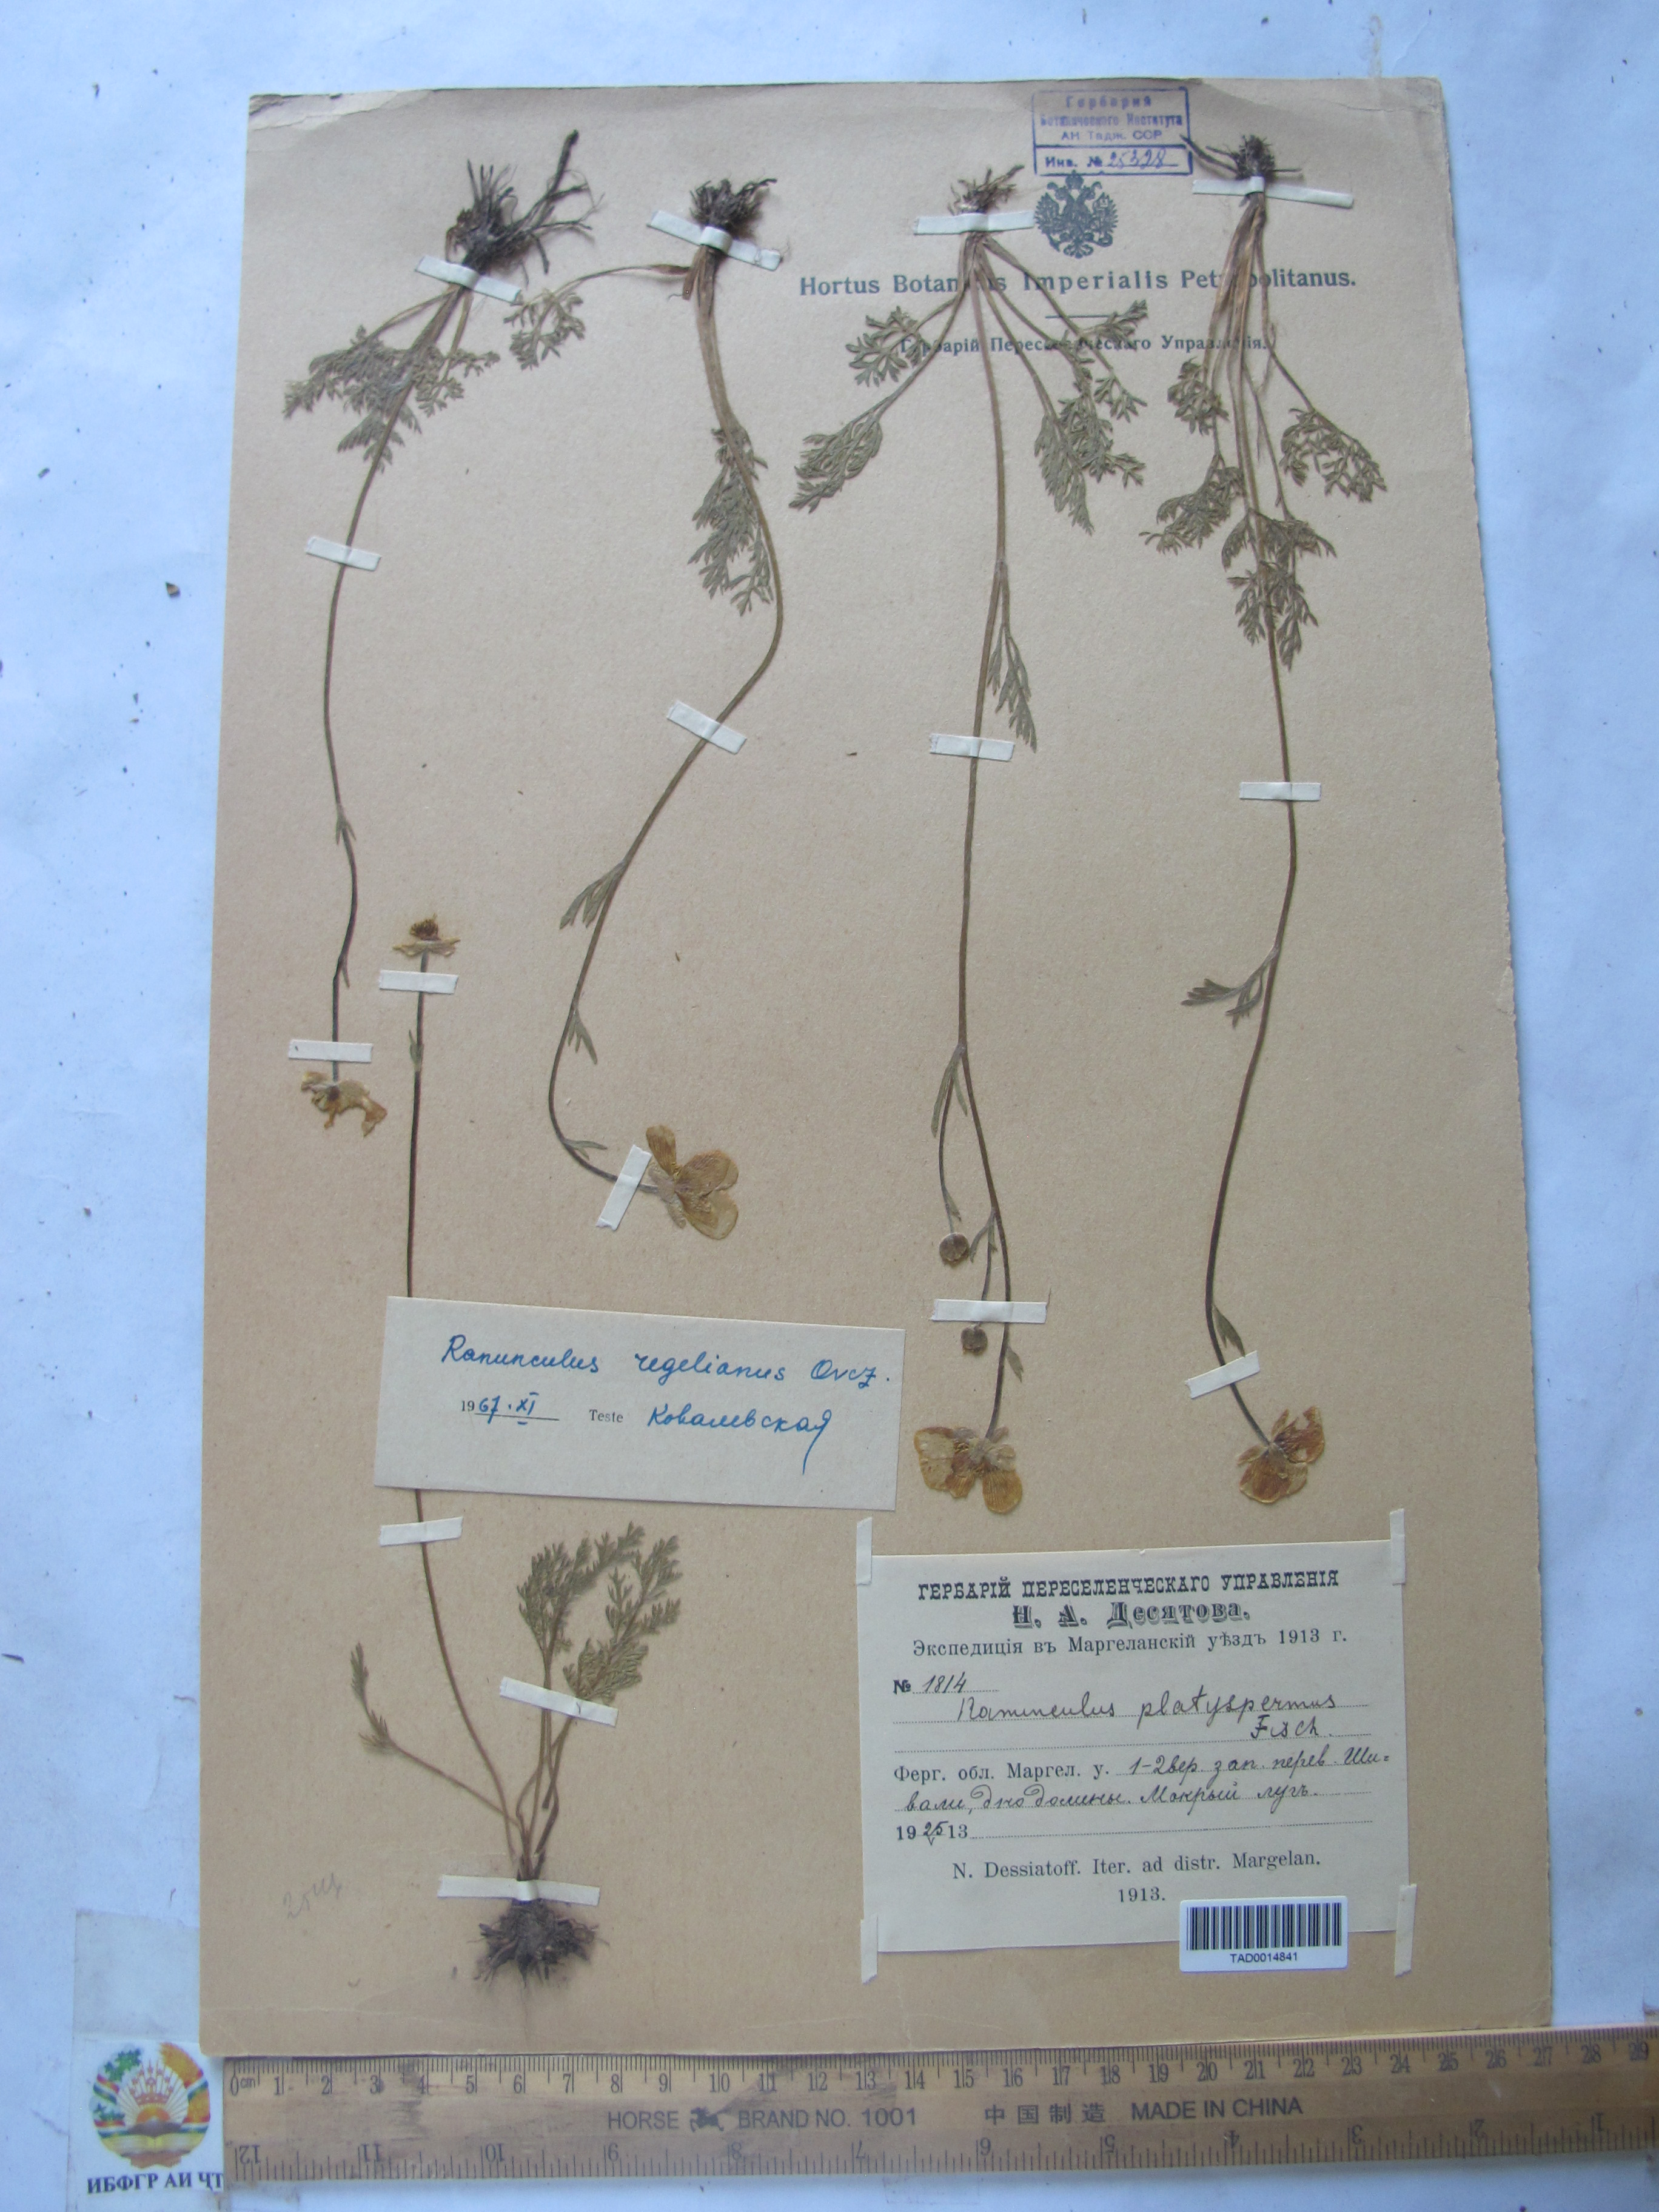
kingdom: Plantae
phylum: Tracheophyta
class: Magnoliopsida
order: Ranunculales
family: Ranunculaceae
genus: Ranunculus
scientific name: Ranunculus regelianus
